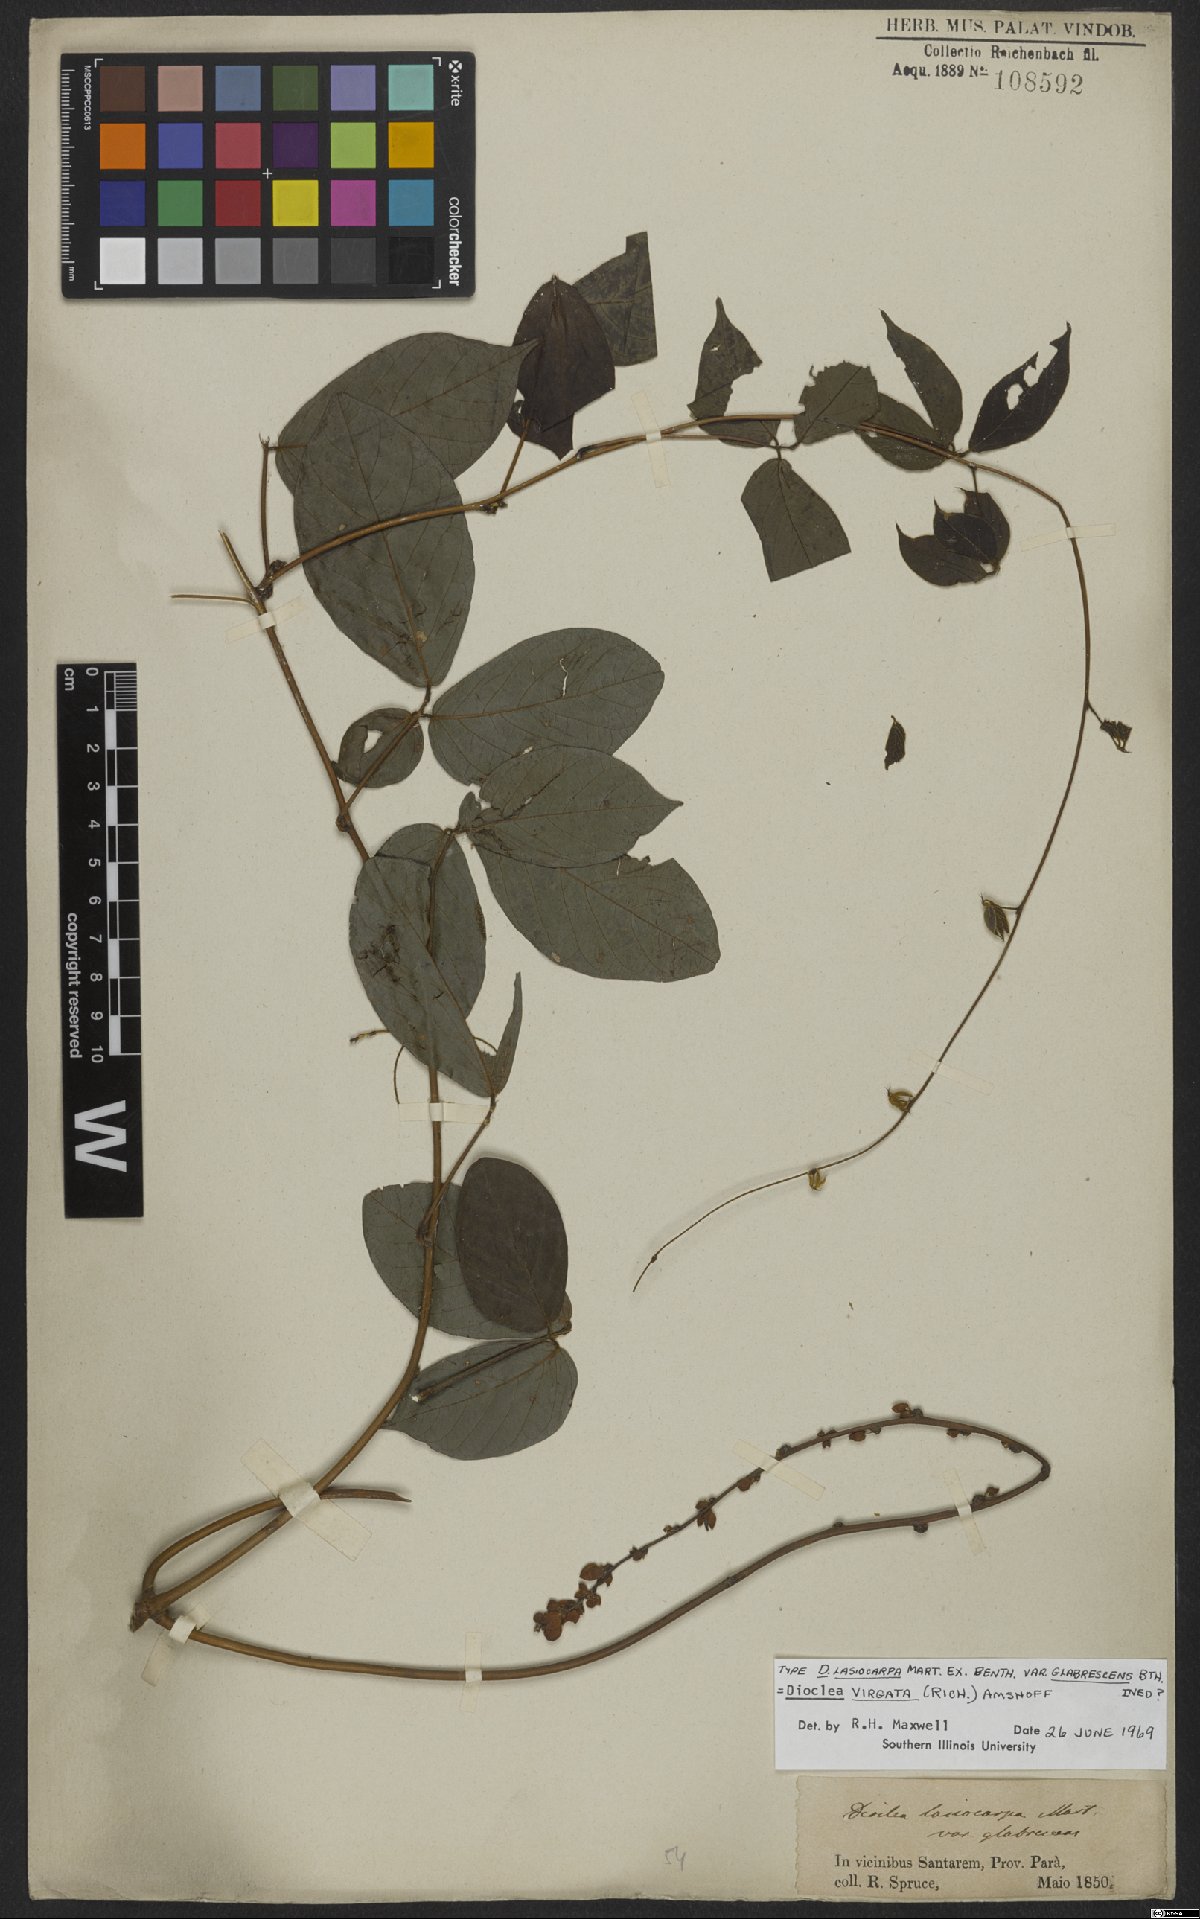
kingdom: Plantae
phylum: Tracheophyta
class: Magnoliopsida
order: Fabales
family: Fabaceae
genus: Dioclea
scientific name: Dioclea virgata
